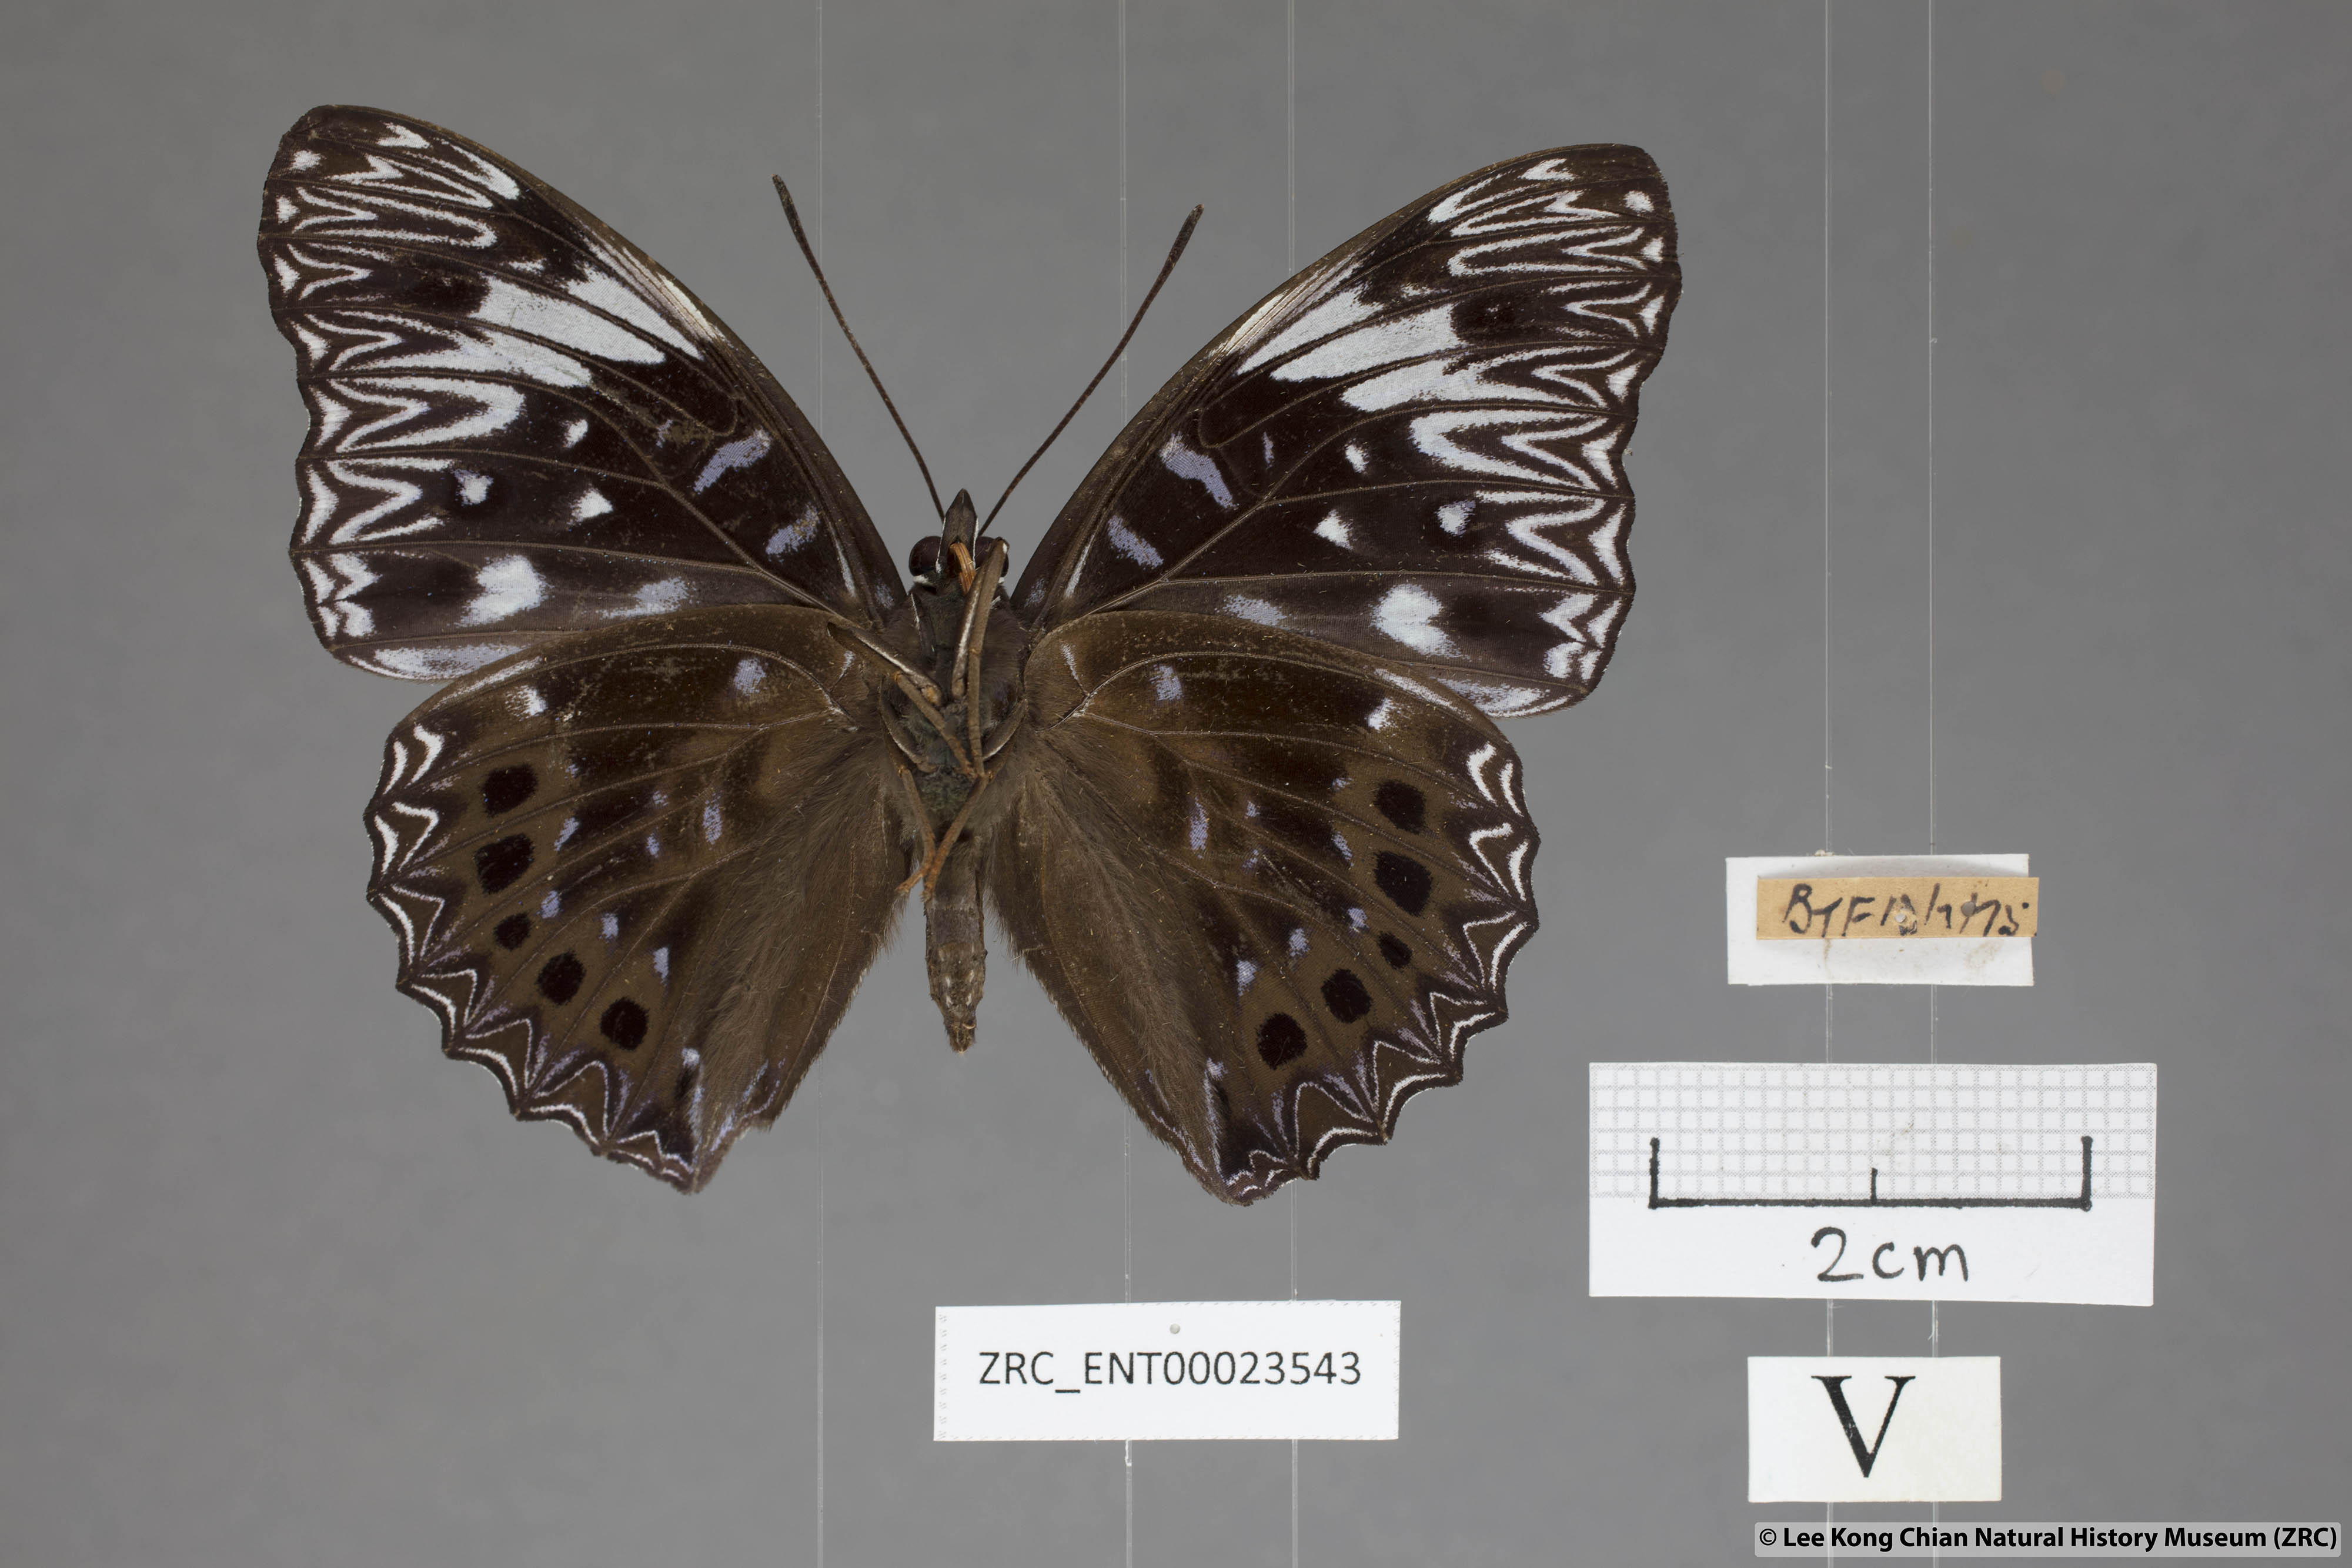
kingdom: Animalia
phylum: Arthropoda
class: Insecta
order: Lepidoptera
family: Nymphalidae
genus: Dichorragia
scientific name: Dichorragia nesimachus
